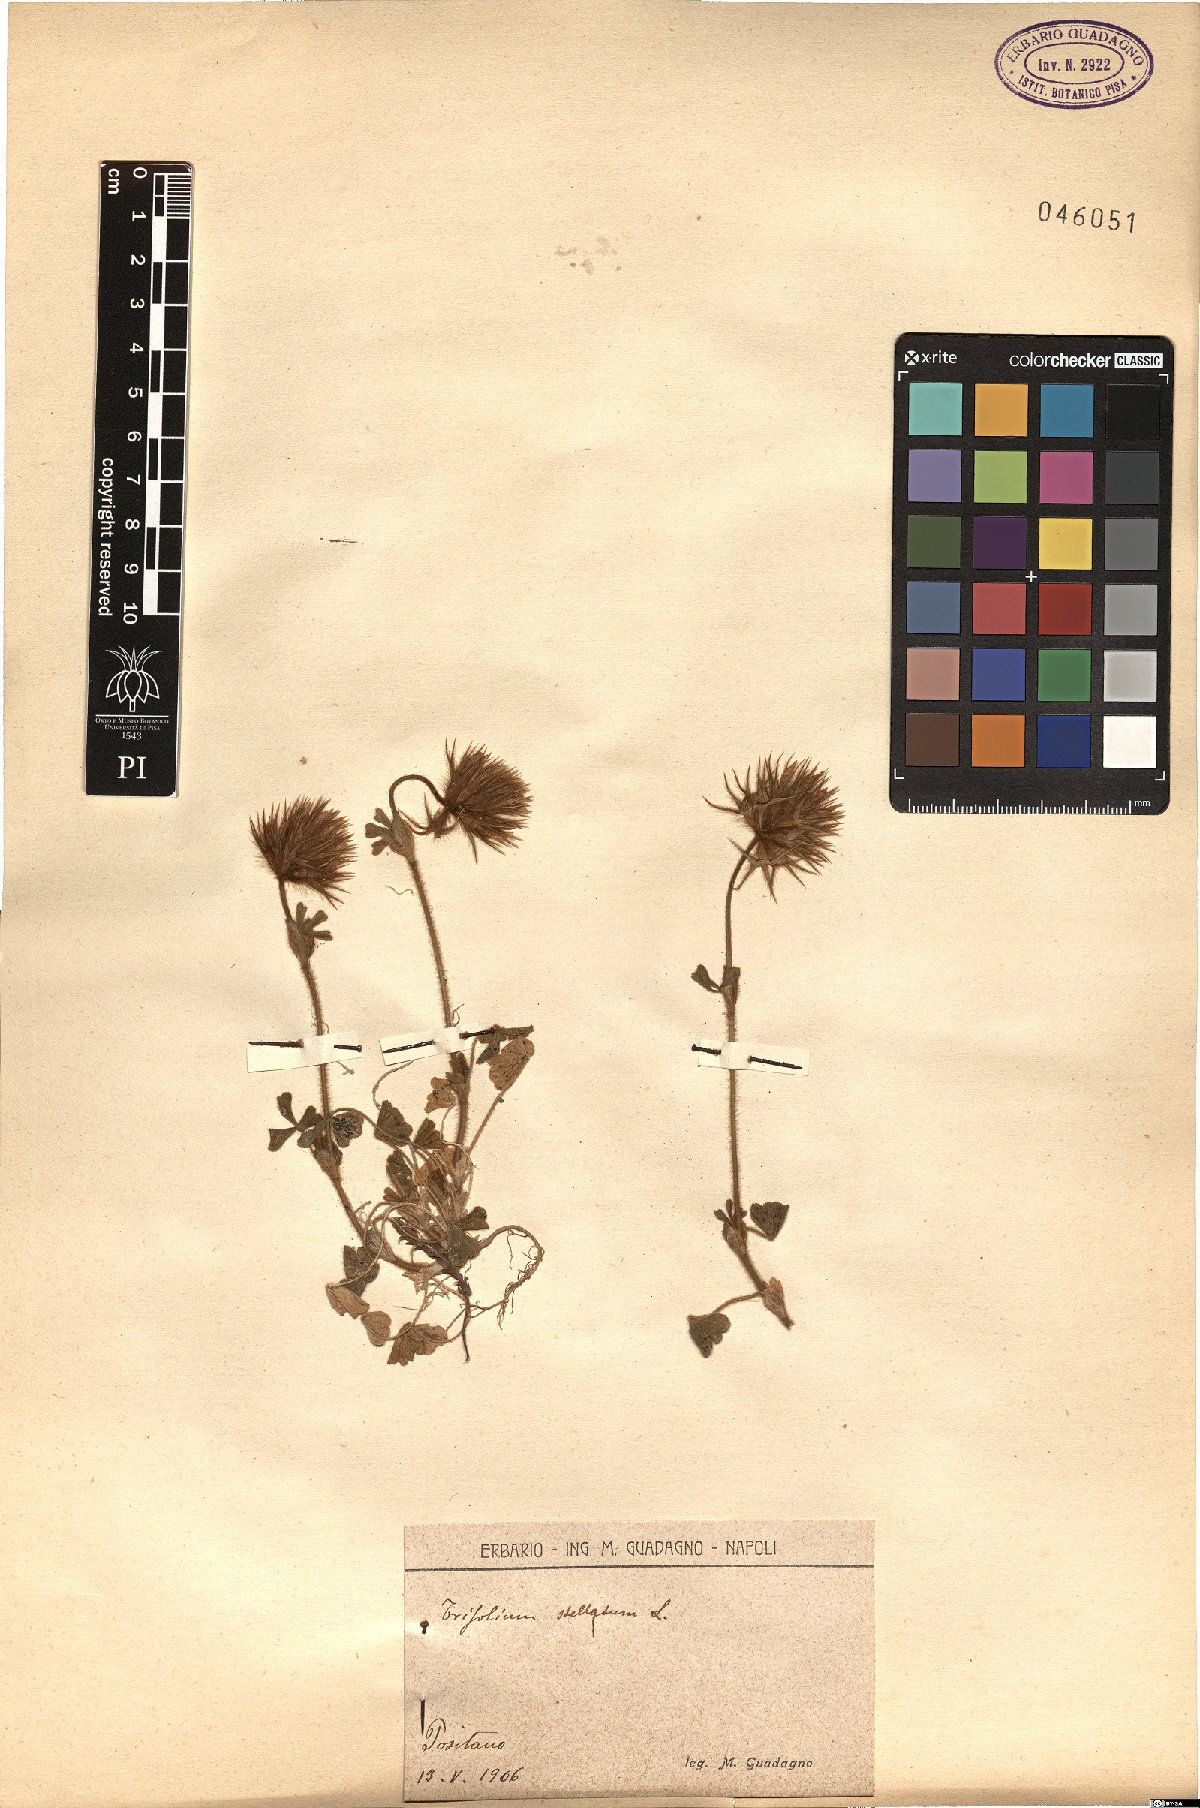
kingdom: Plantae
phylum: Tracheophyta
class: Magnoliopsida
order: Fabales
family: Fabaceae
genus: Trifolium
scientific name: Trifolium stellatum
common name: Starry clover
